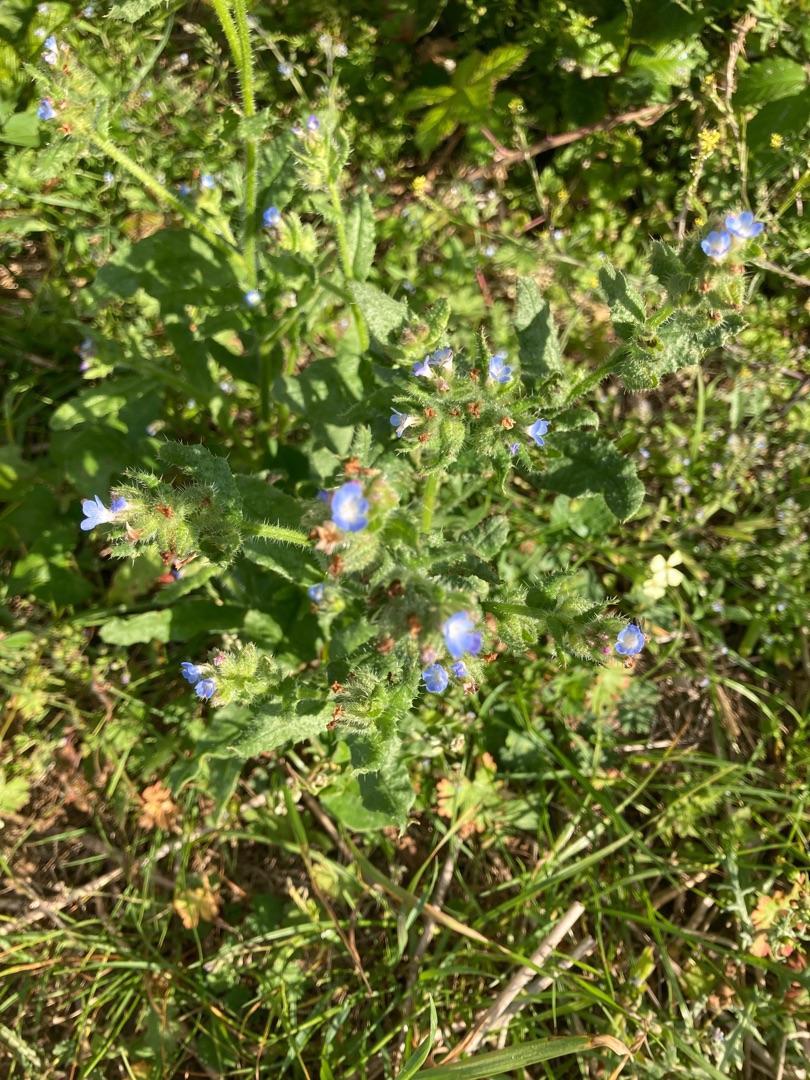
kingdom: Plantae
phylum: Tracheophyta
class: Magnoliopsida
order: Boraginales
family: Boraginaceae
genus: Lycopsis
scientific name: Lycopsis arvensis
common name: Krumhals
